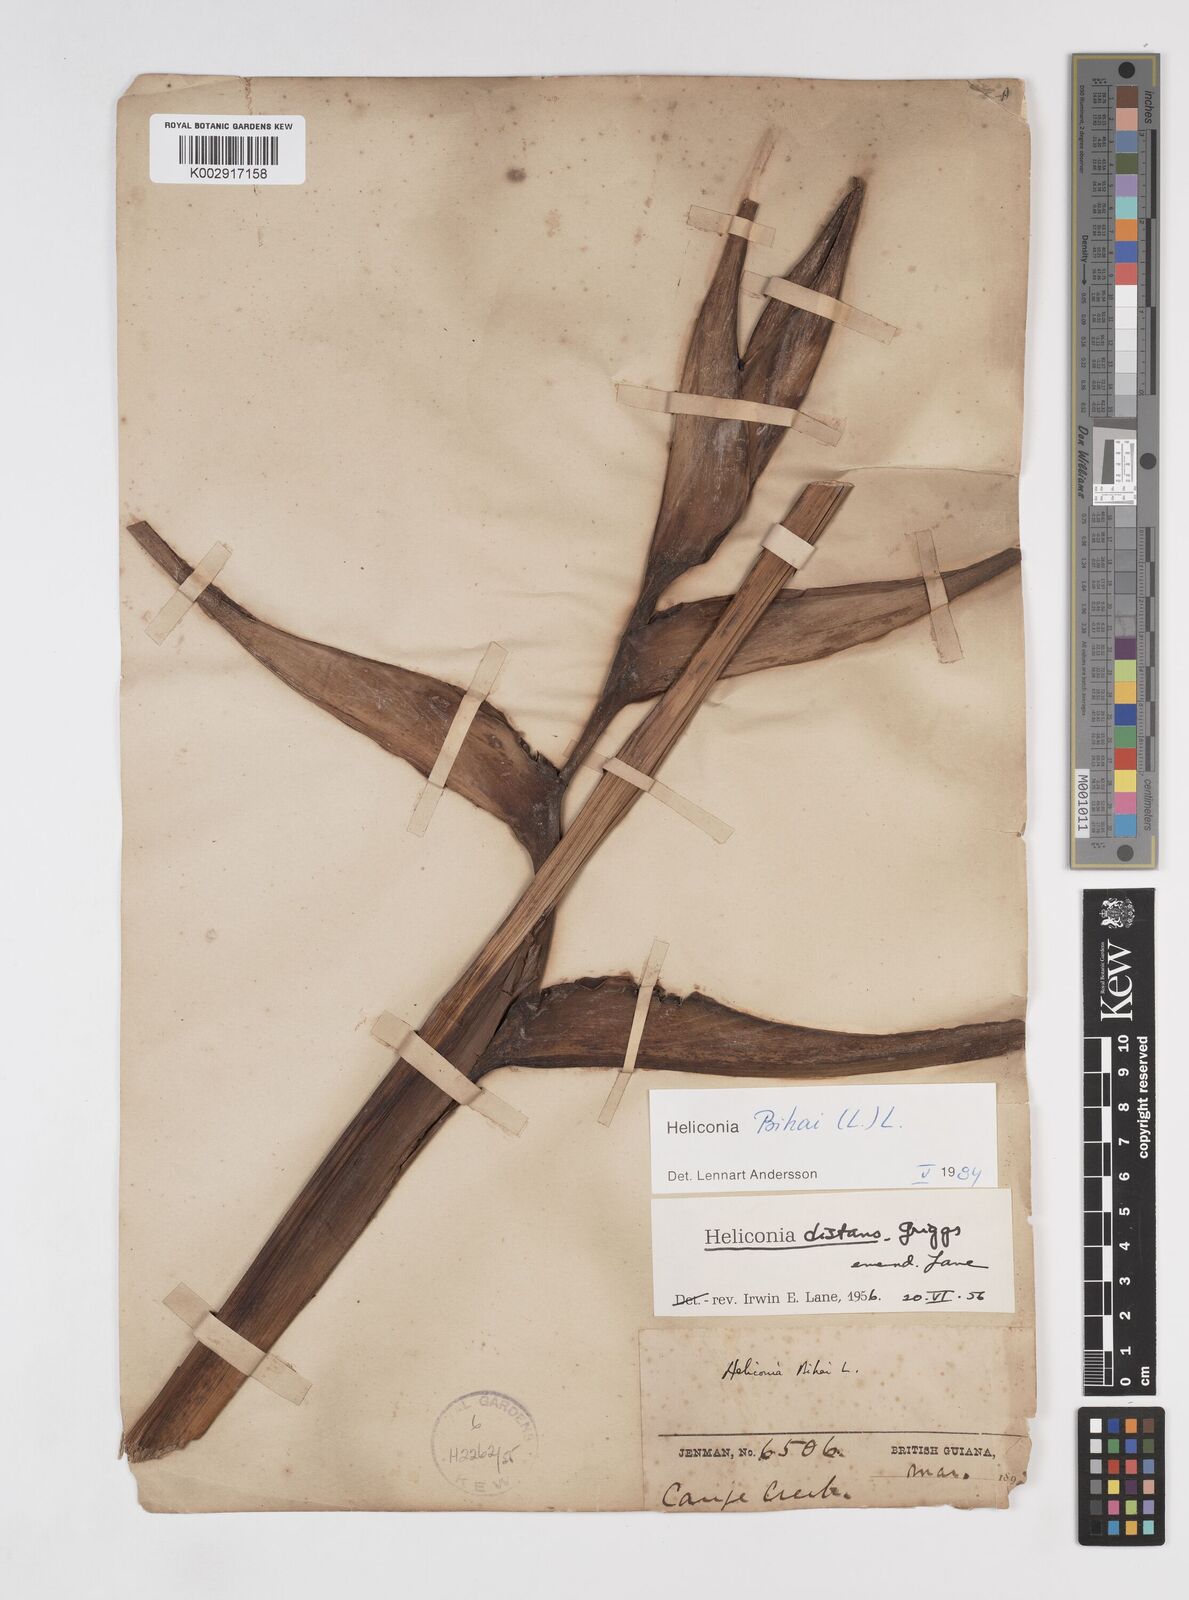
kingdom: Plantae
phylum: Tracheophyta
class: Liliopsida
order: Zingiberales
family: Heliconiaceae
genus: Heliconia
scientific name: Heliconia bihai
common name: Macaw flower
